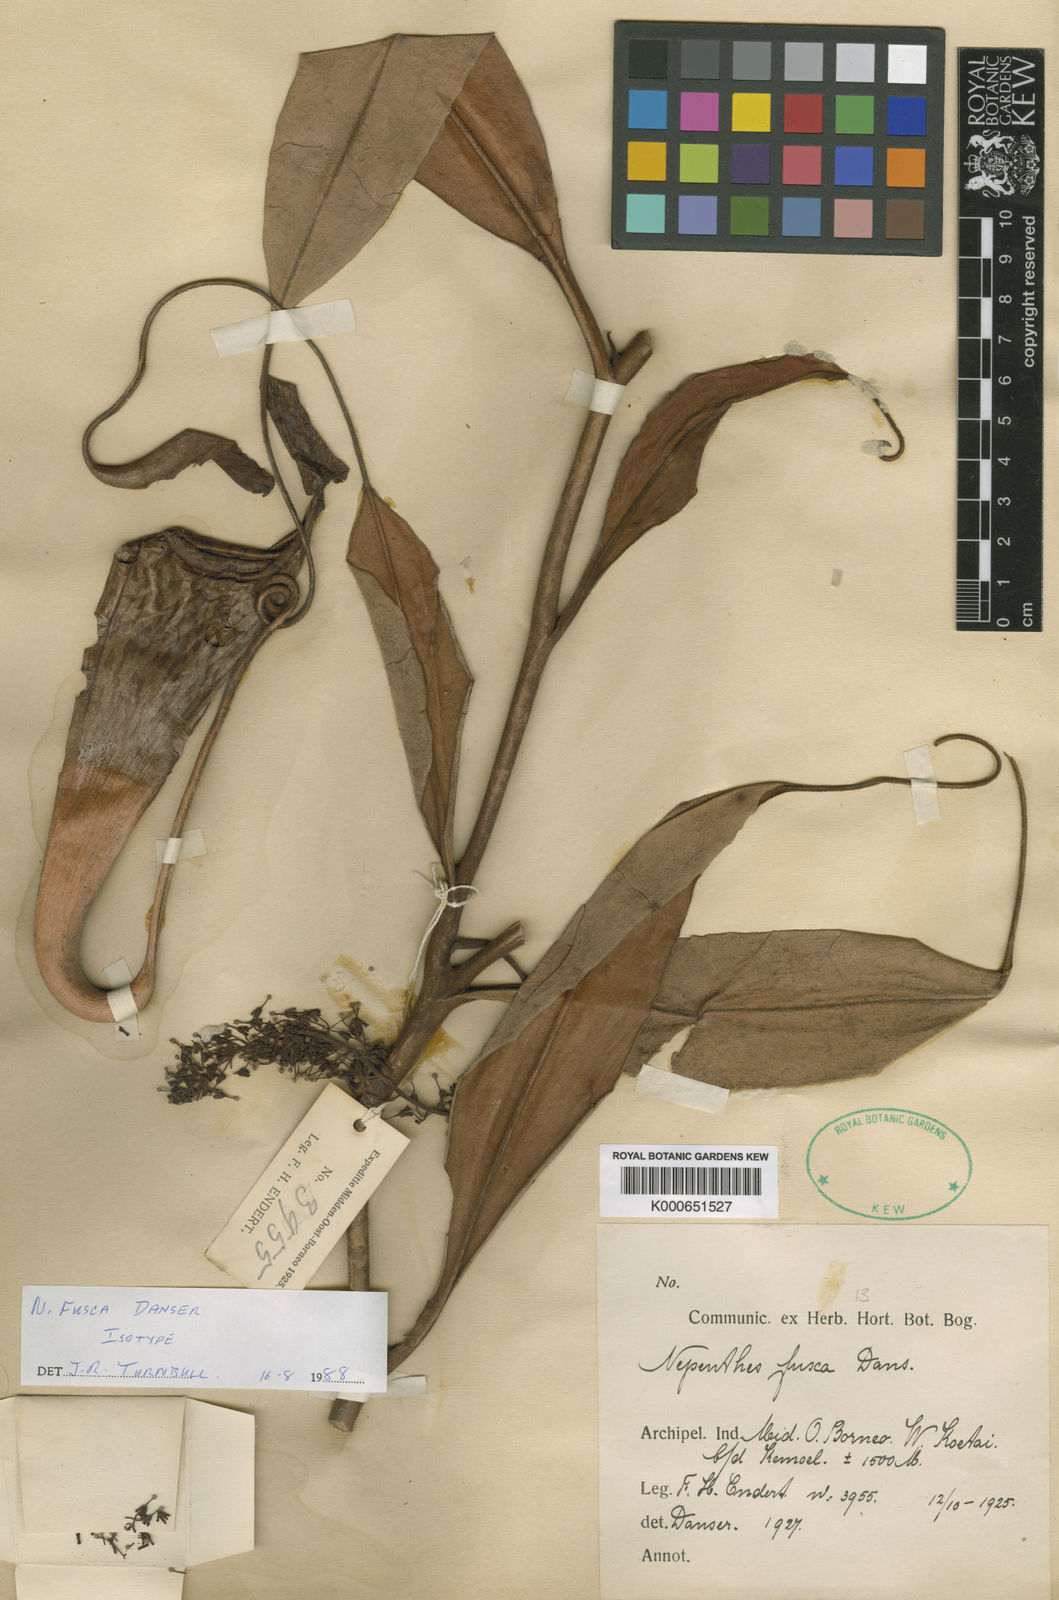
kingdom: Plantae
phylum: Tracheophyta
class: Magnoliopsida
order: Caryophyllales
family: Nepenthaceae
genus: Nepenthes
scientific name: Nepenthes fusca
